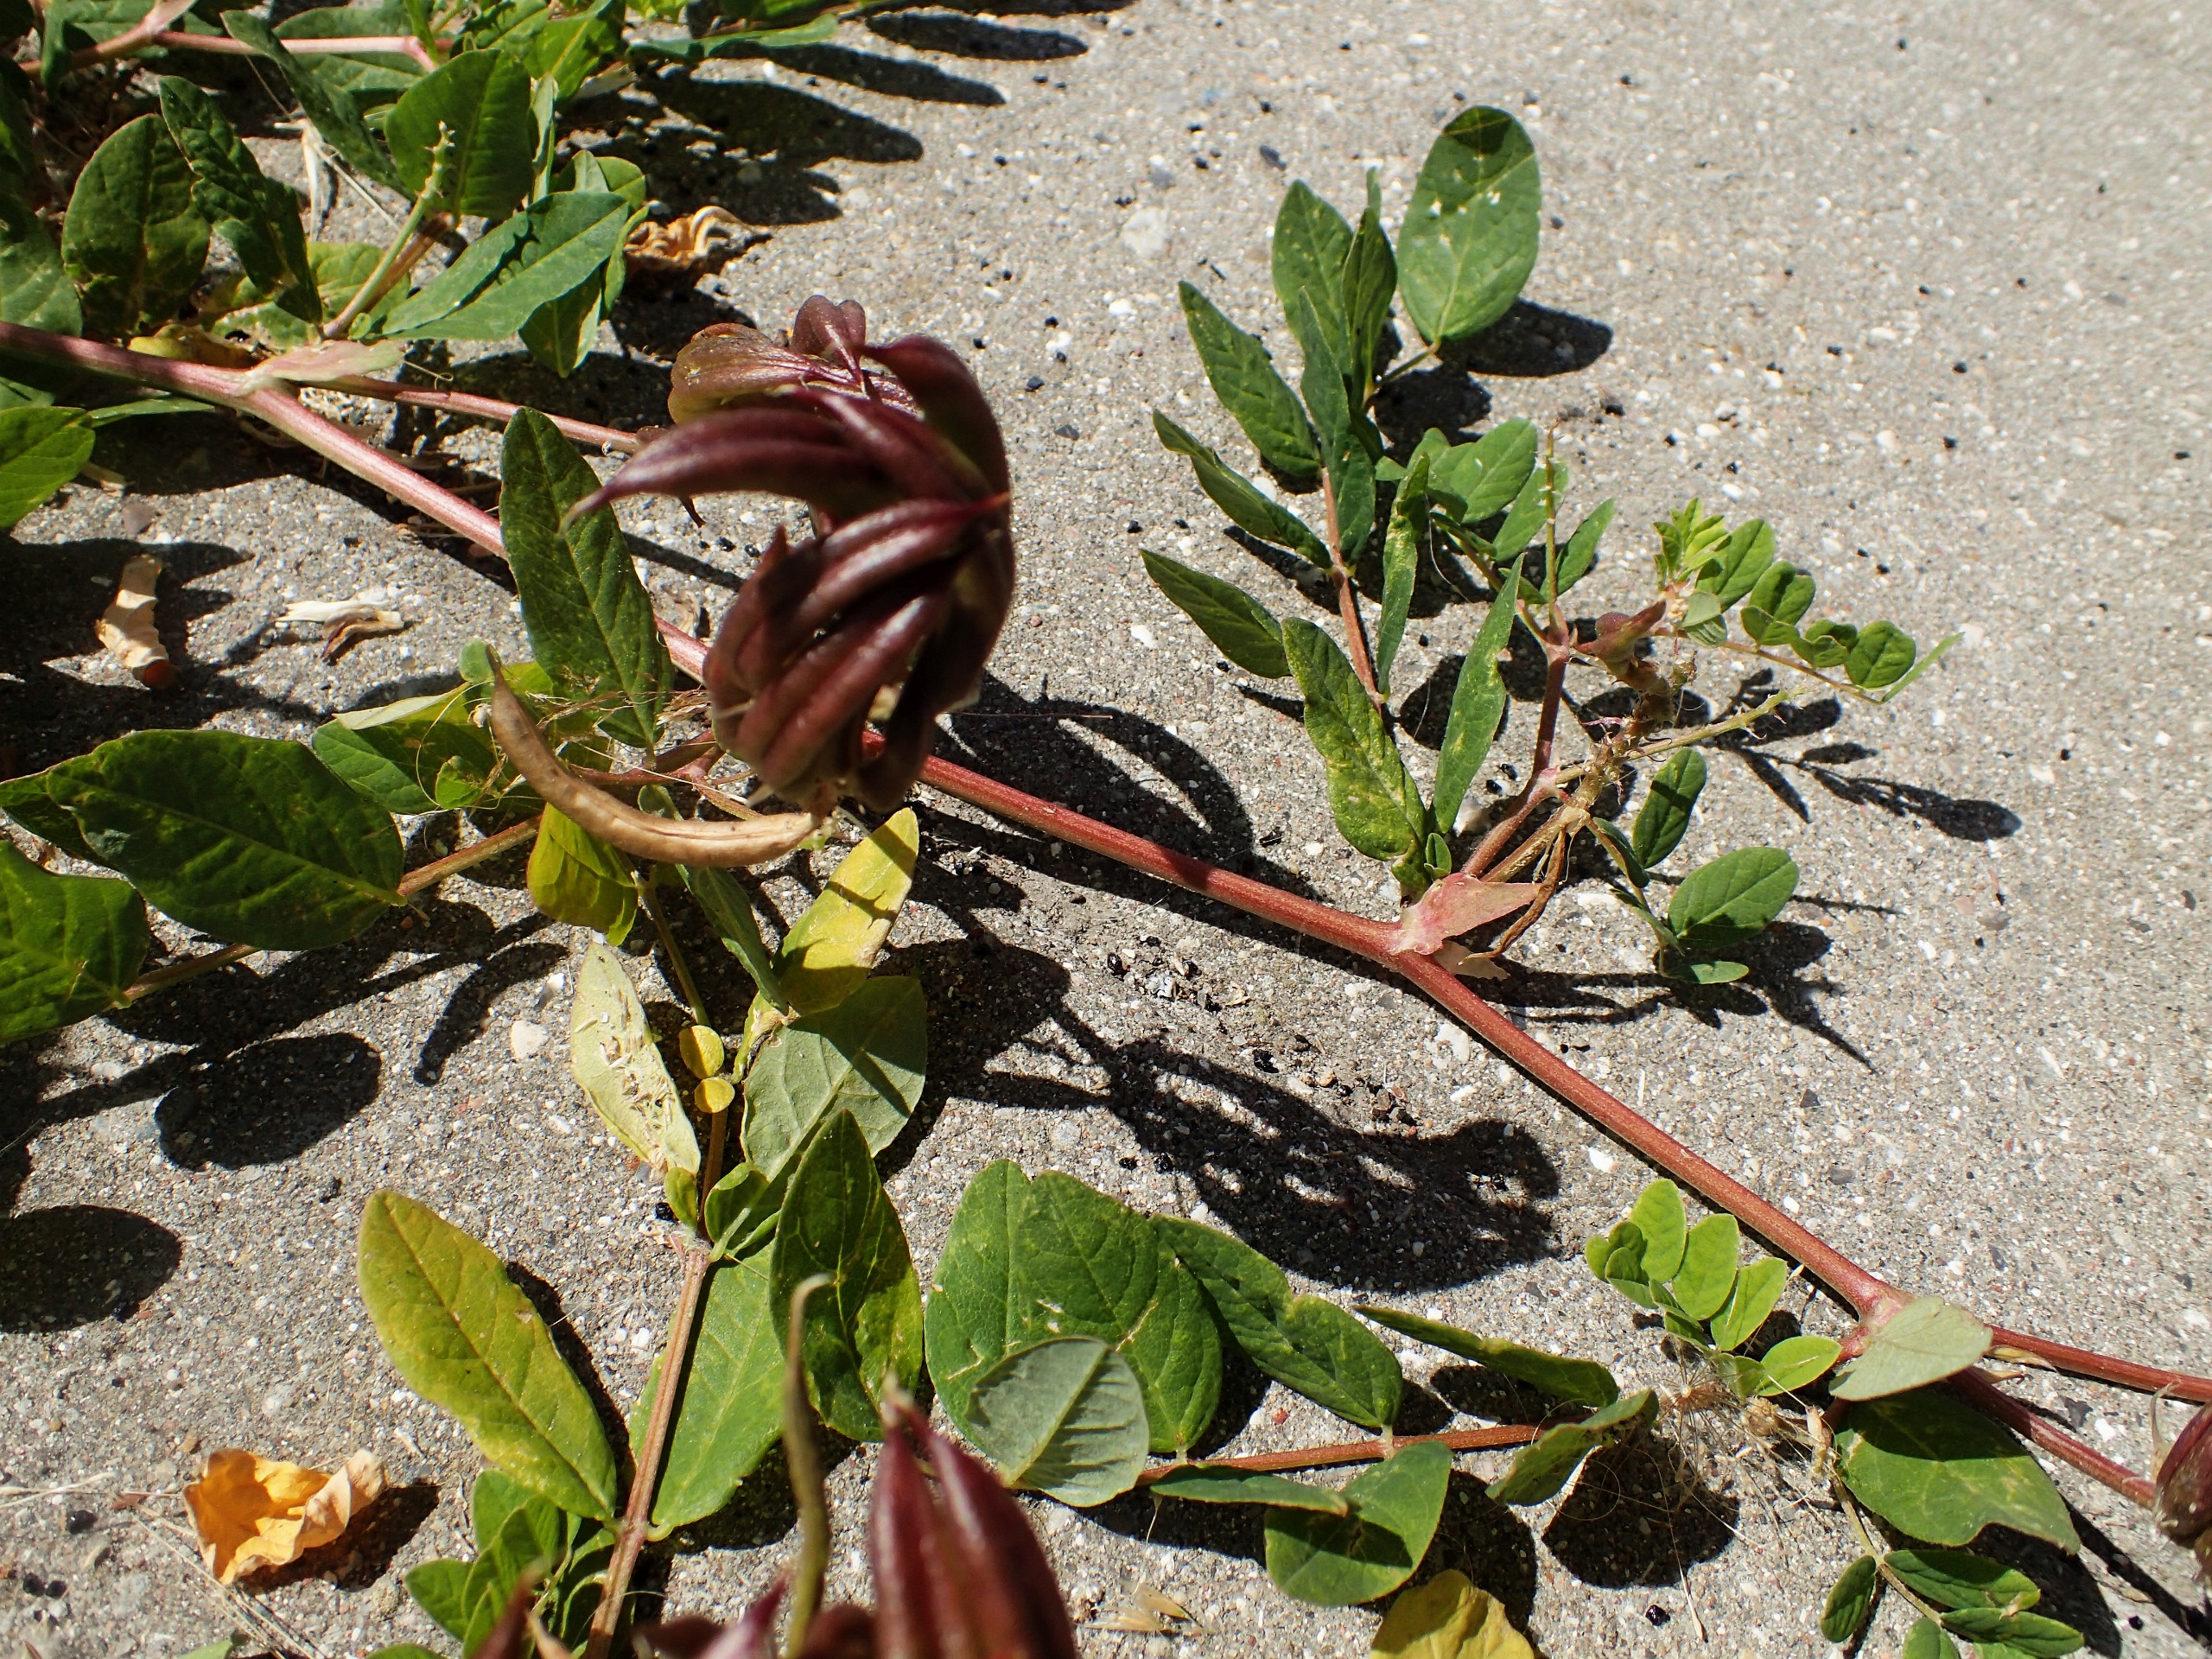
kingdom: Plantae
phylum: Tracheophyta
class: Magnoliopsida
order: Fabales
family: Fabaceae
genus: Astragalus
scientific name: Astragalus glycyphyllos
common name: Sød astragel
